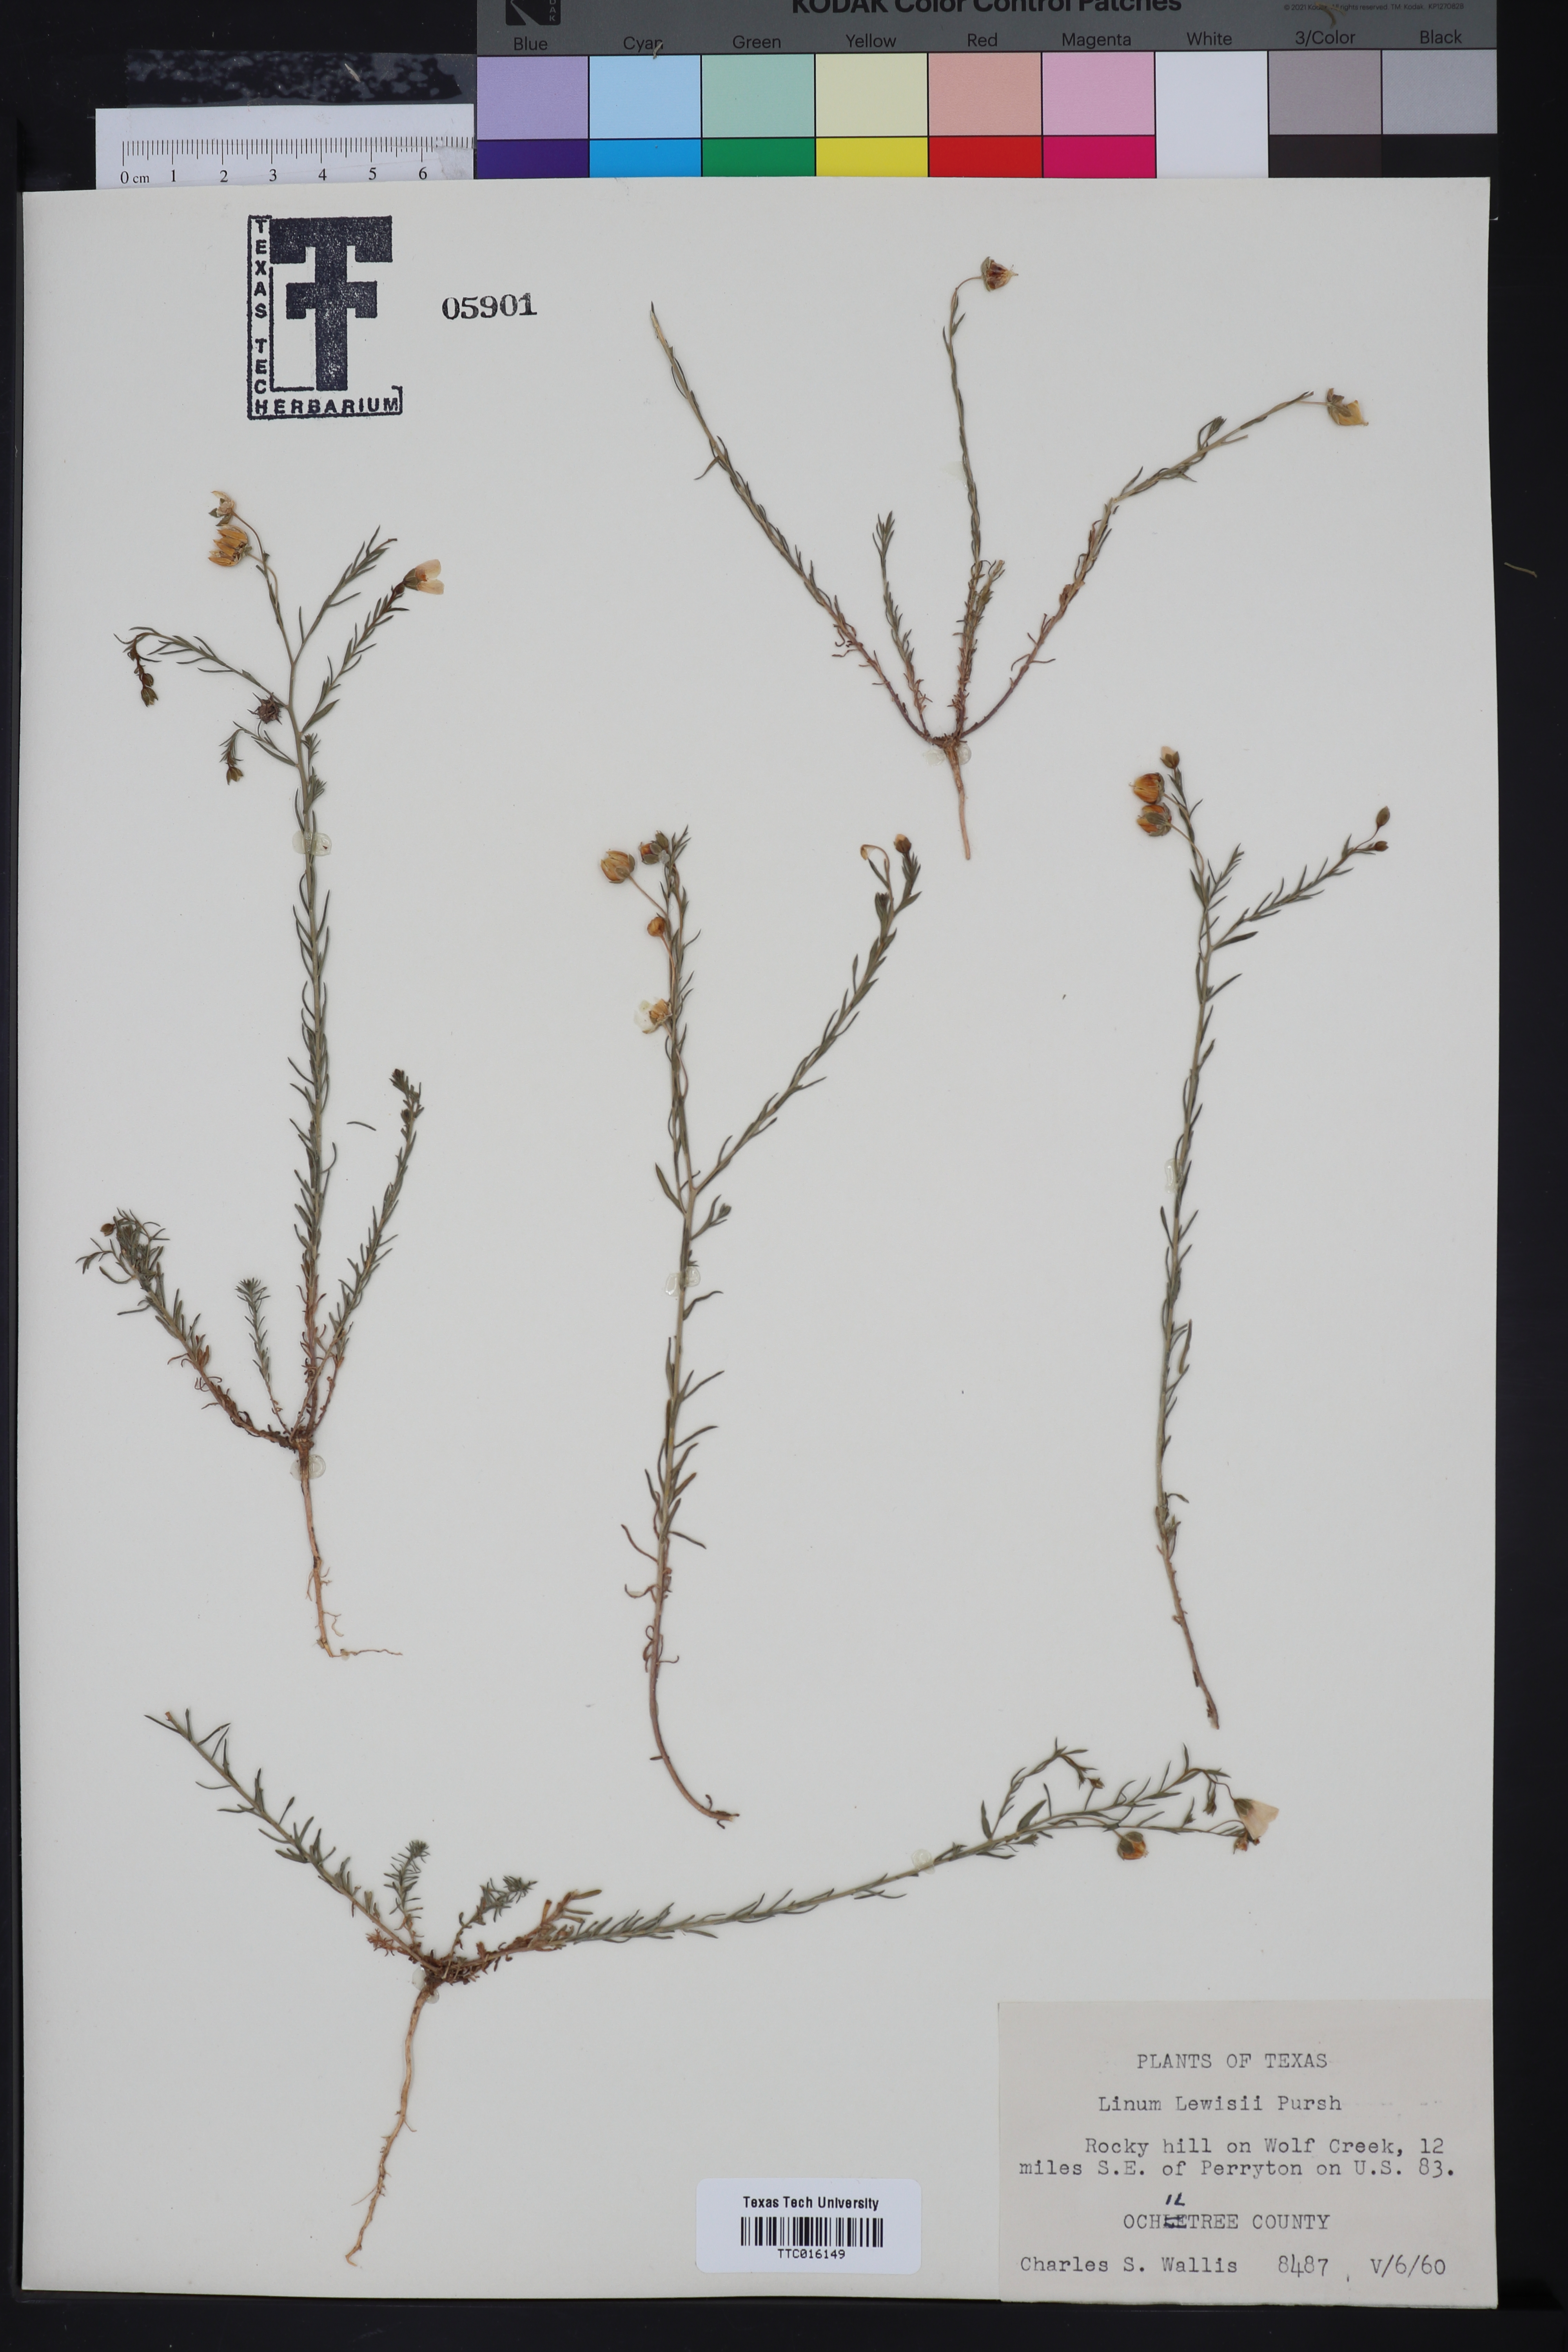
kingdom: Plantae
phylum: Tracheophyta
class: Magnoliopsida
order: Malpighiales
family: Linaceae
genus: Linum
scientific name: Linum lewisii
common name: Prairie flax
